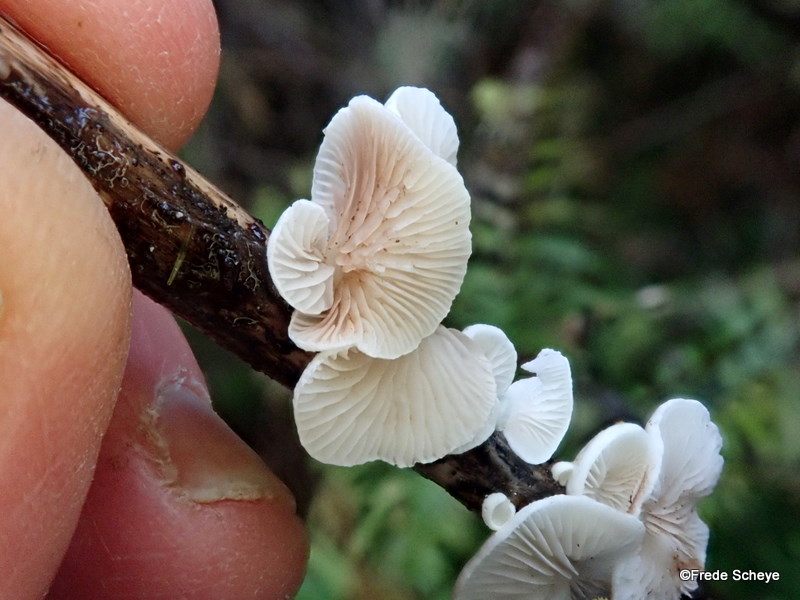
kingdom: Fungi
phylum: Basidiomycota
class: Agaricomycetes
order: Agaricales
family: Crepidotaceae
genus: Crepidotus
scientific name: Crepidotus luteolus
